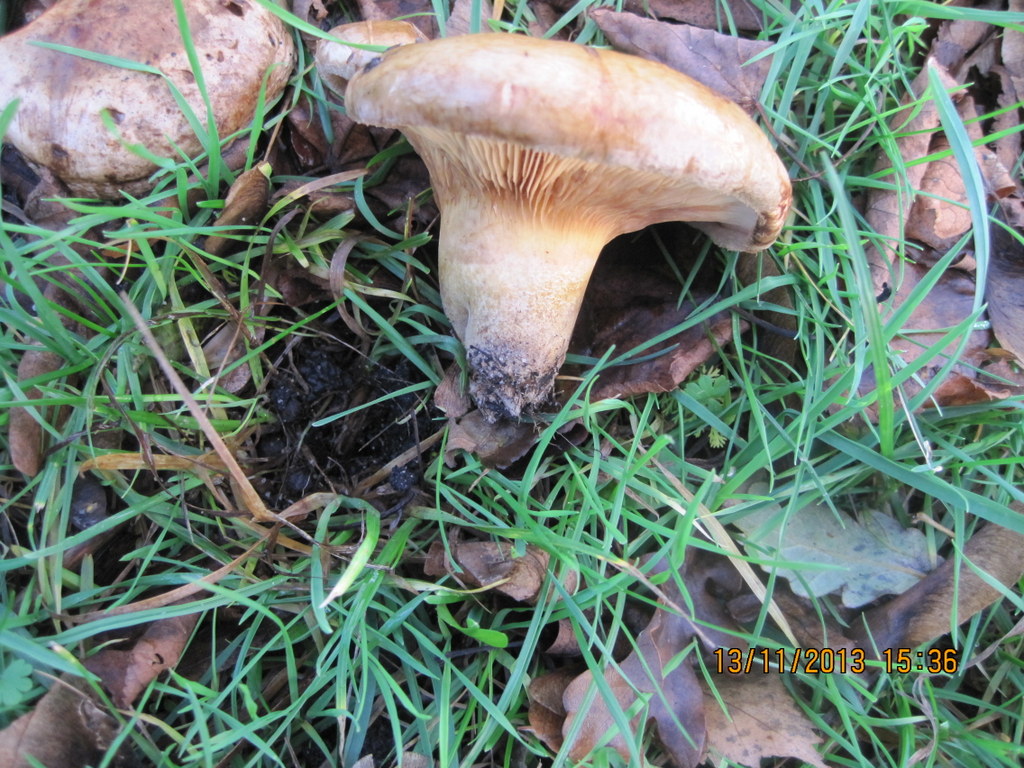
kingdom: Fungi
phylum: Basidiomycota
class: Agaricomycetes
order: Boletales
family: Paxillaceae
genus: Paxillus
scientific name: Paxillus ammoniavirescens
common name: olivensporet netbladhat
